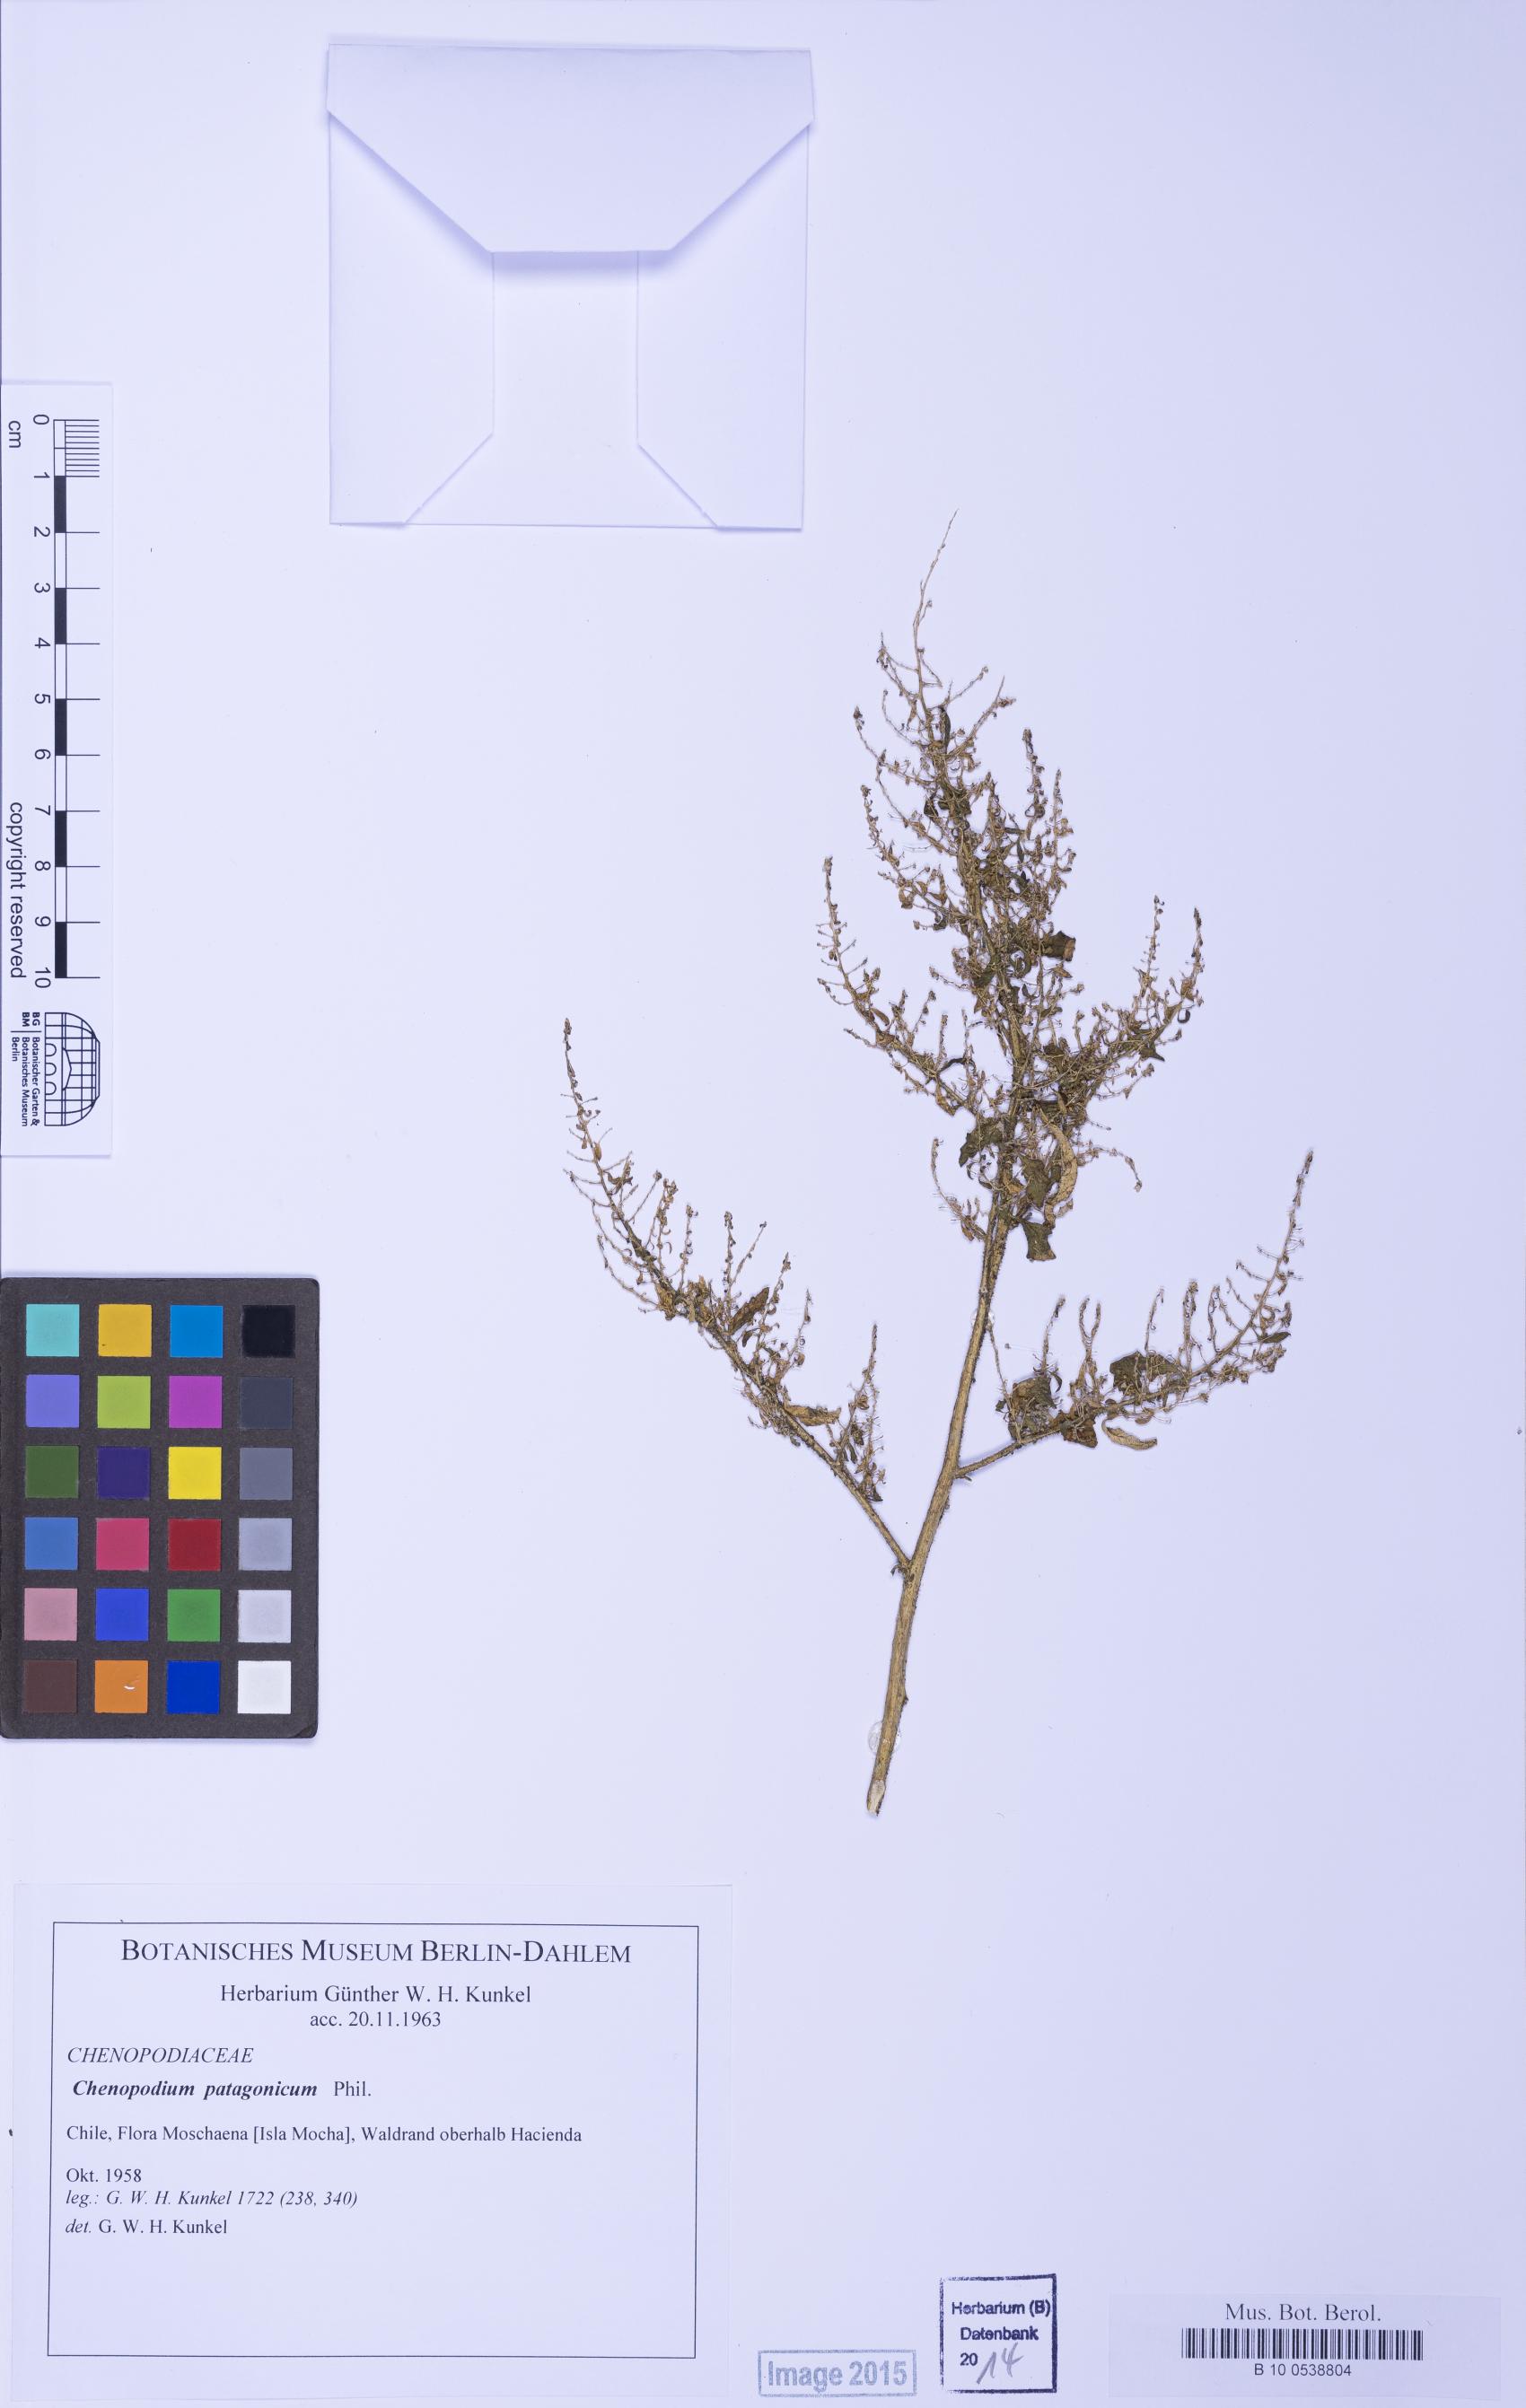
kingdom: Plantae
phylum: Tracheophyta
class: Magnoliopsida
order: Caryophyllales
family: Amaranthaceae
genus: Chenopodium
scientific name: Chenopodium carnosulum
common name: Ridged goosefoot
